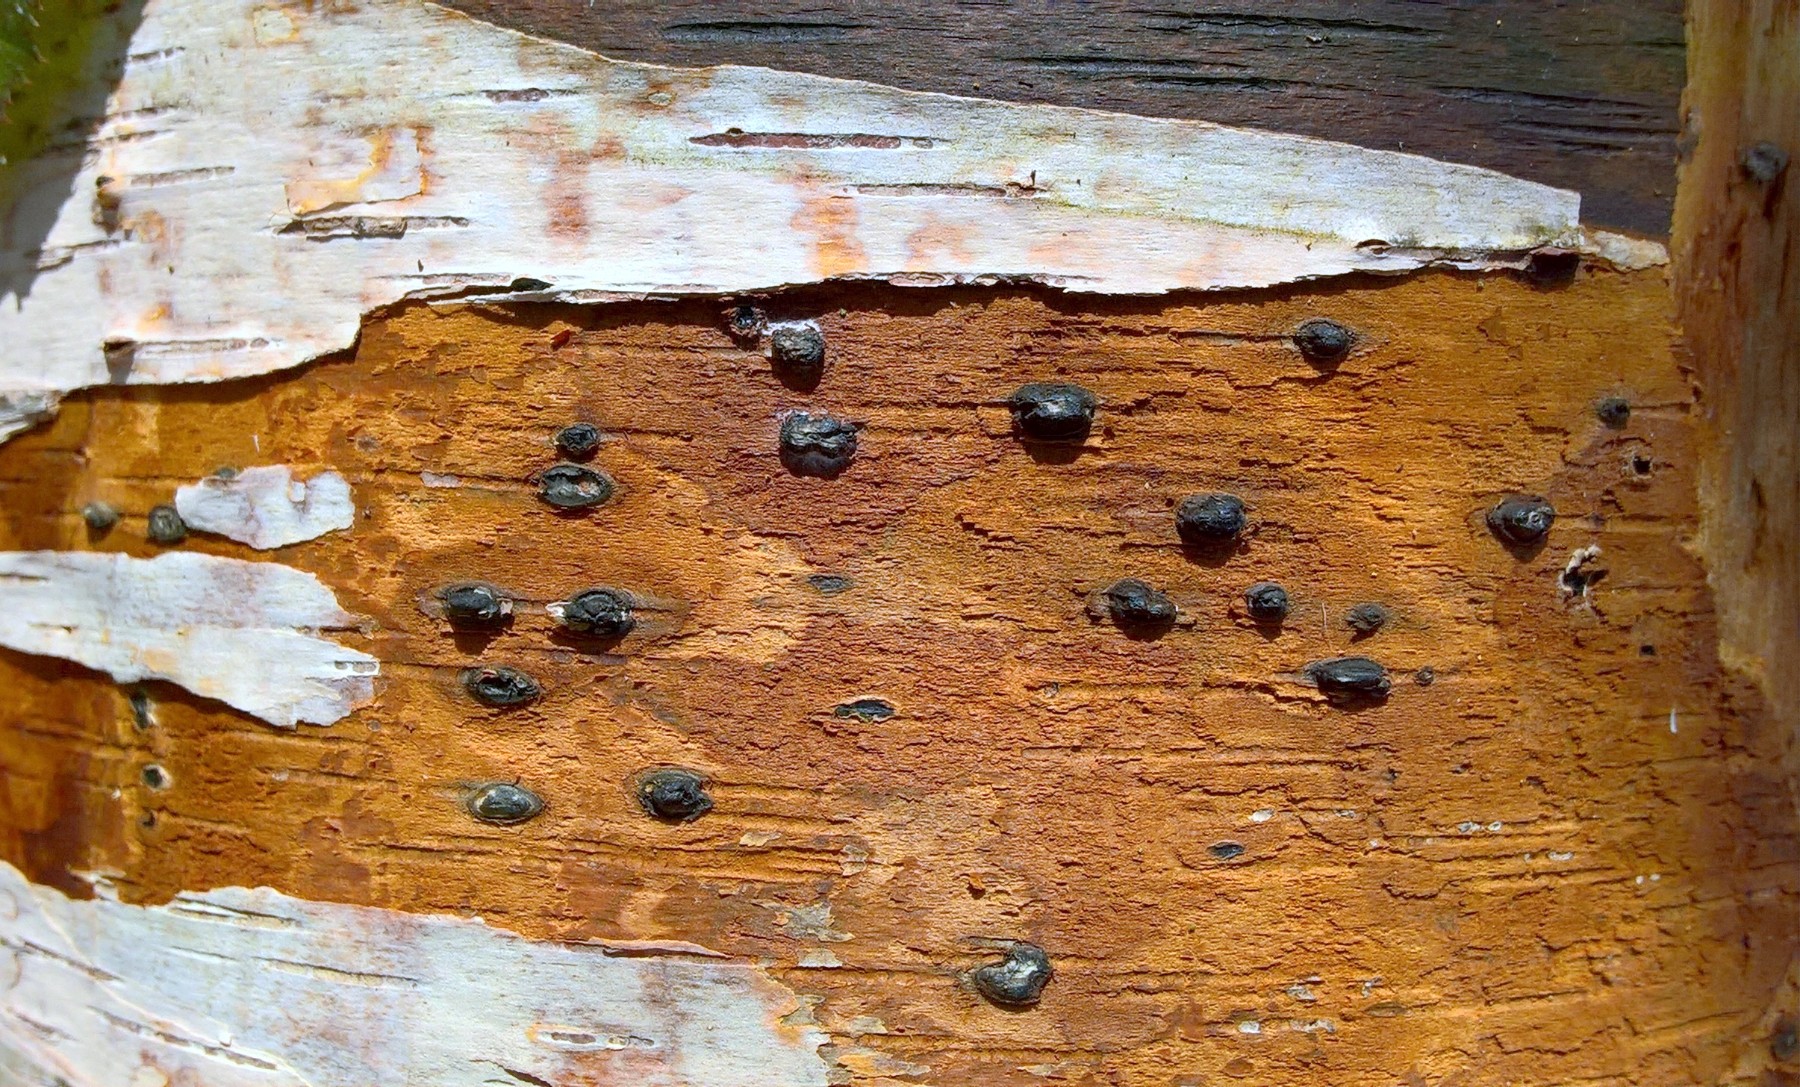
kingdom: Fungi
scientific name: Fungi
